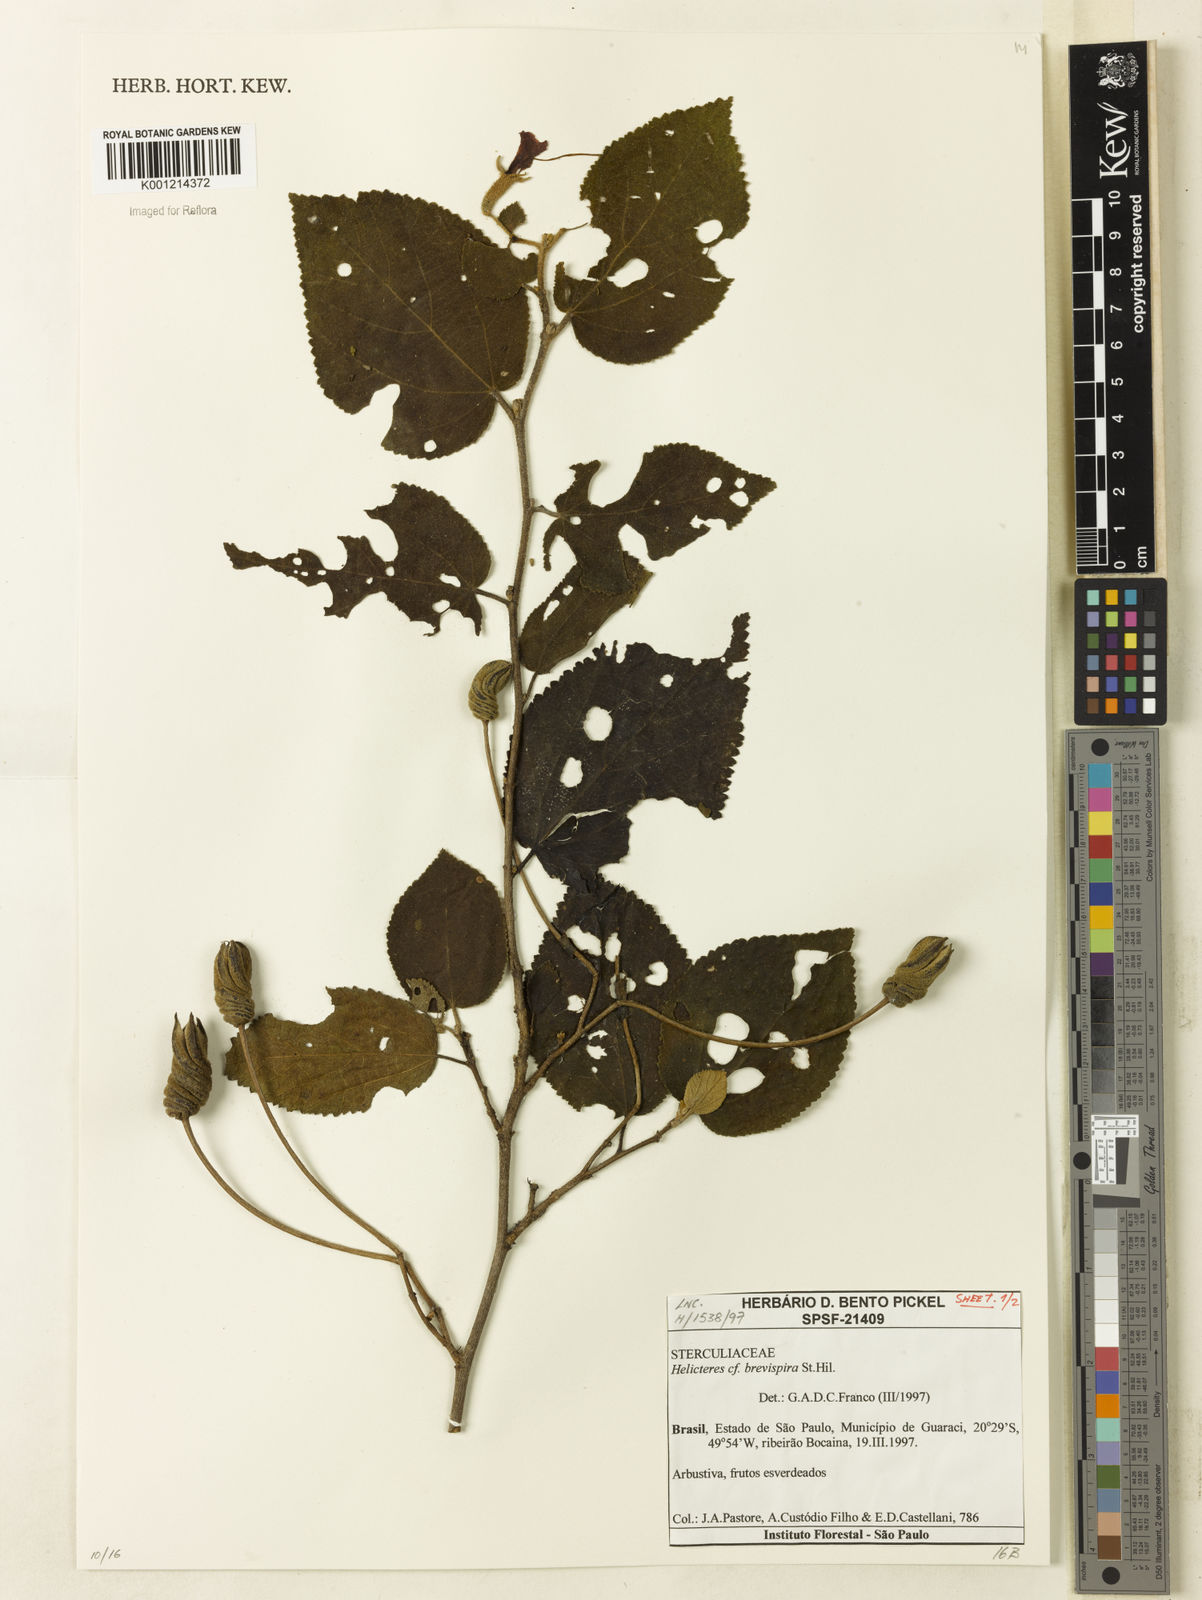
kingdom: Plantae
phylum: Tracheophyta
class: Magnoliopsida
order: Malvales
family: Malvaceae
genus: Helicteres
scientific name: Helicteres
